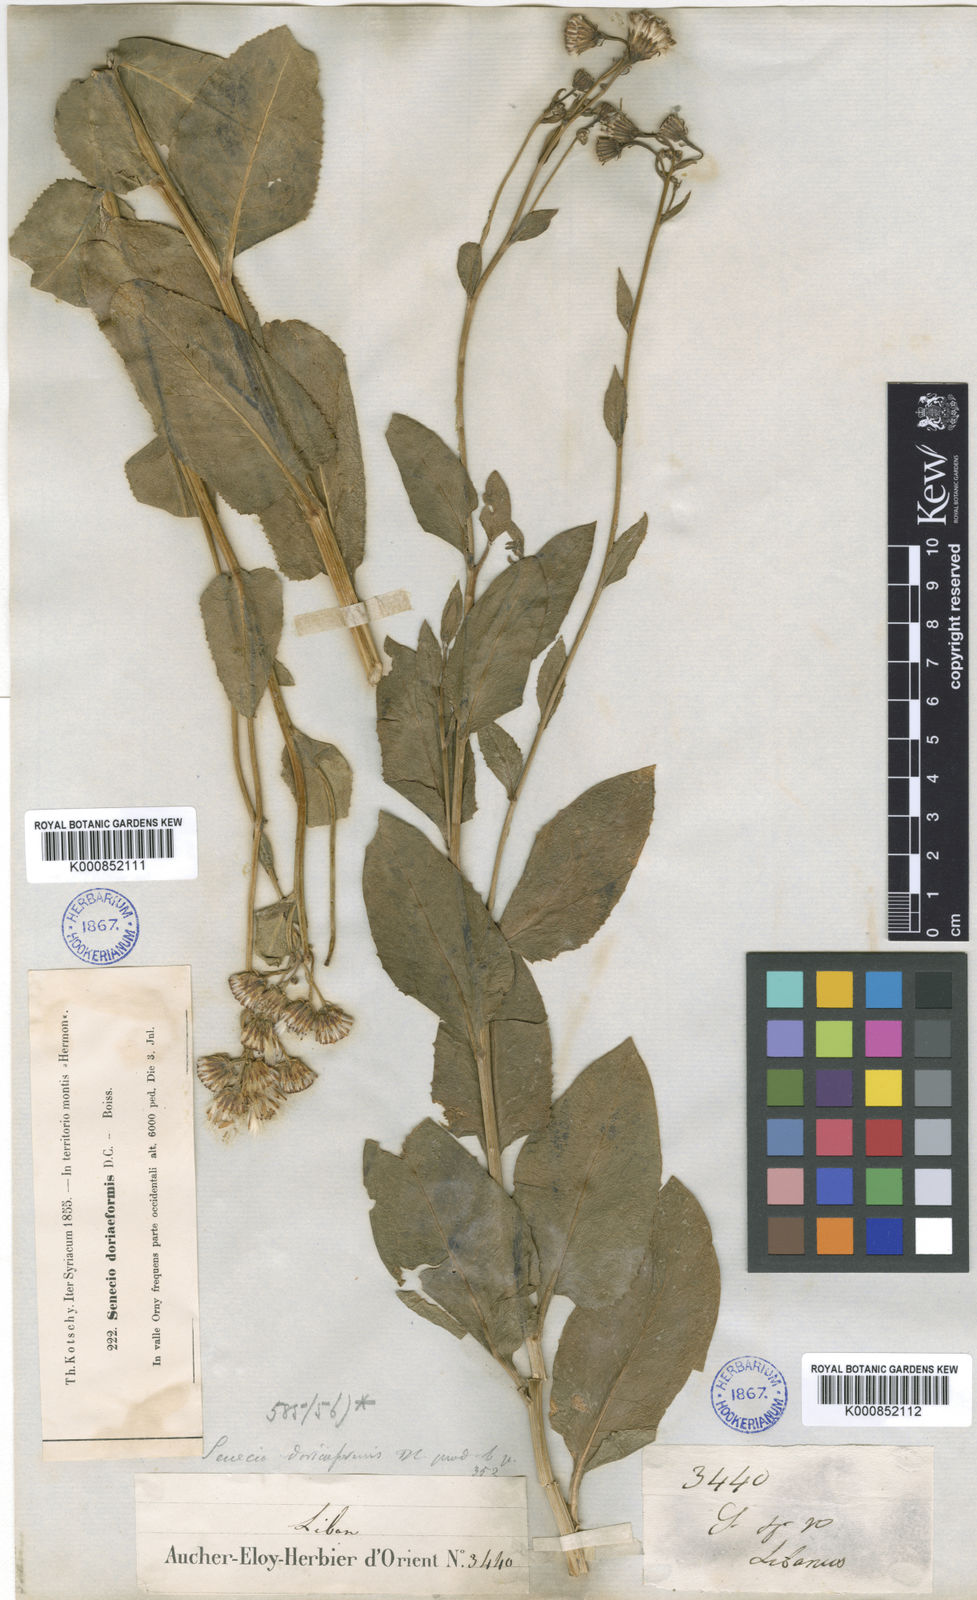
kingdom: Plantae
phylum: Tracheophyta
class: Magnoliopsida
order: Asterales
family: Asteraceae
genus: Senecio
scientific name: Senecio doriiformis
